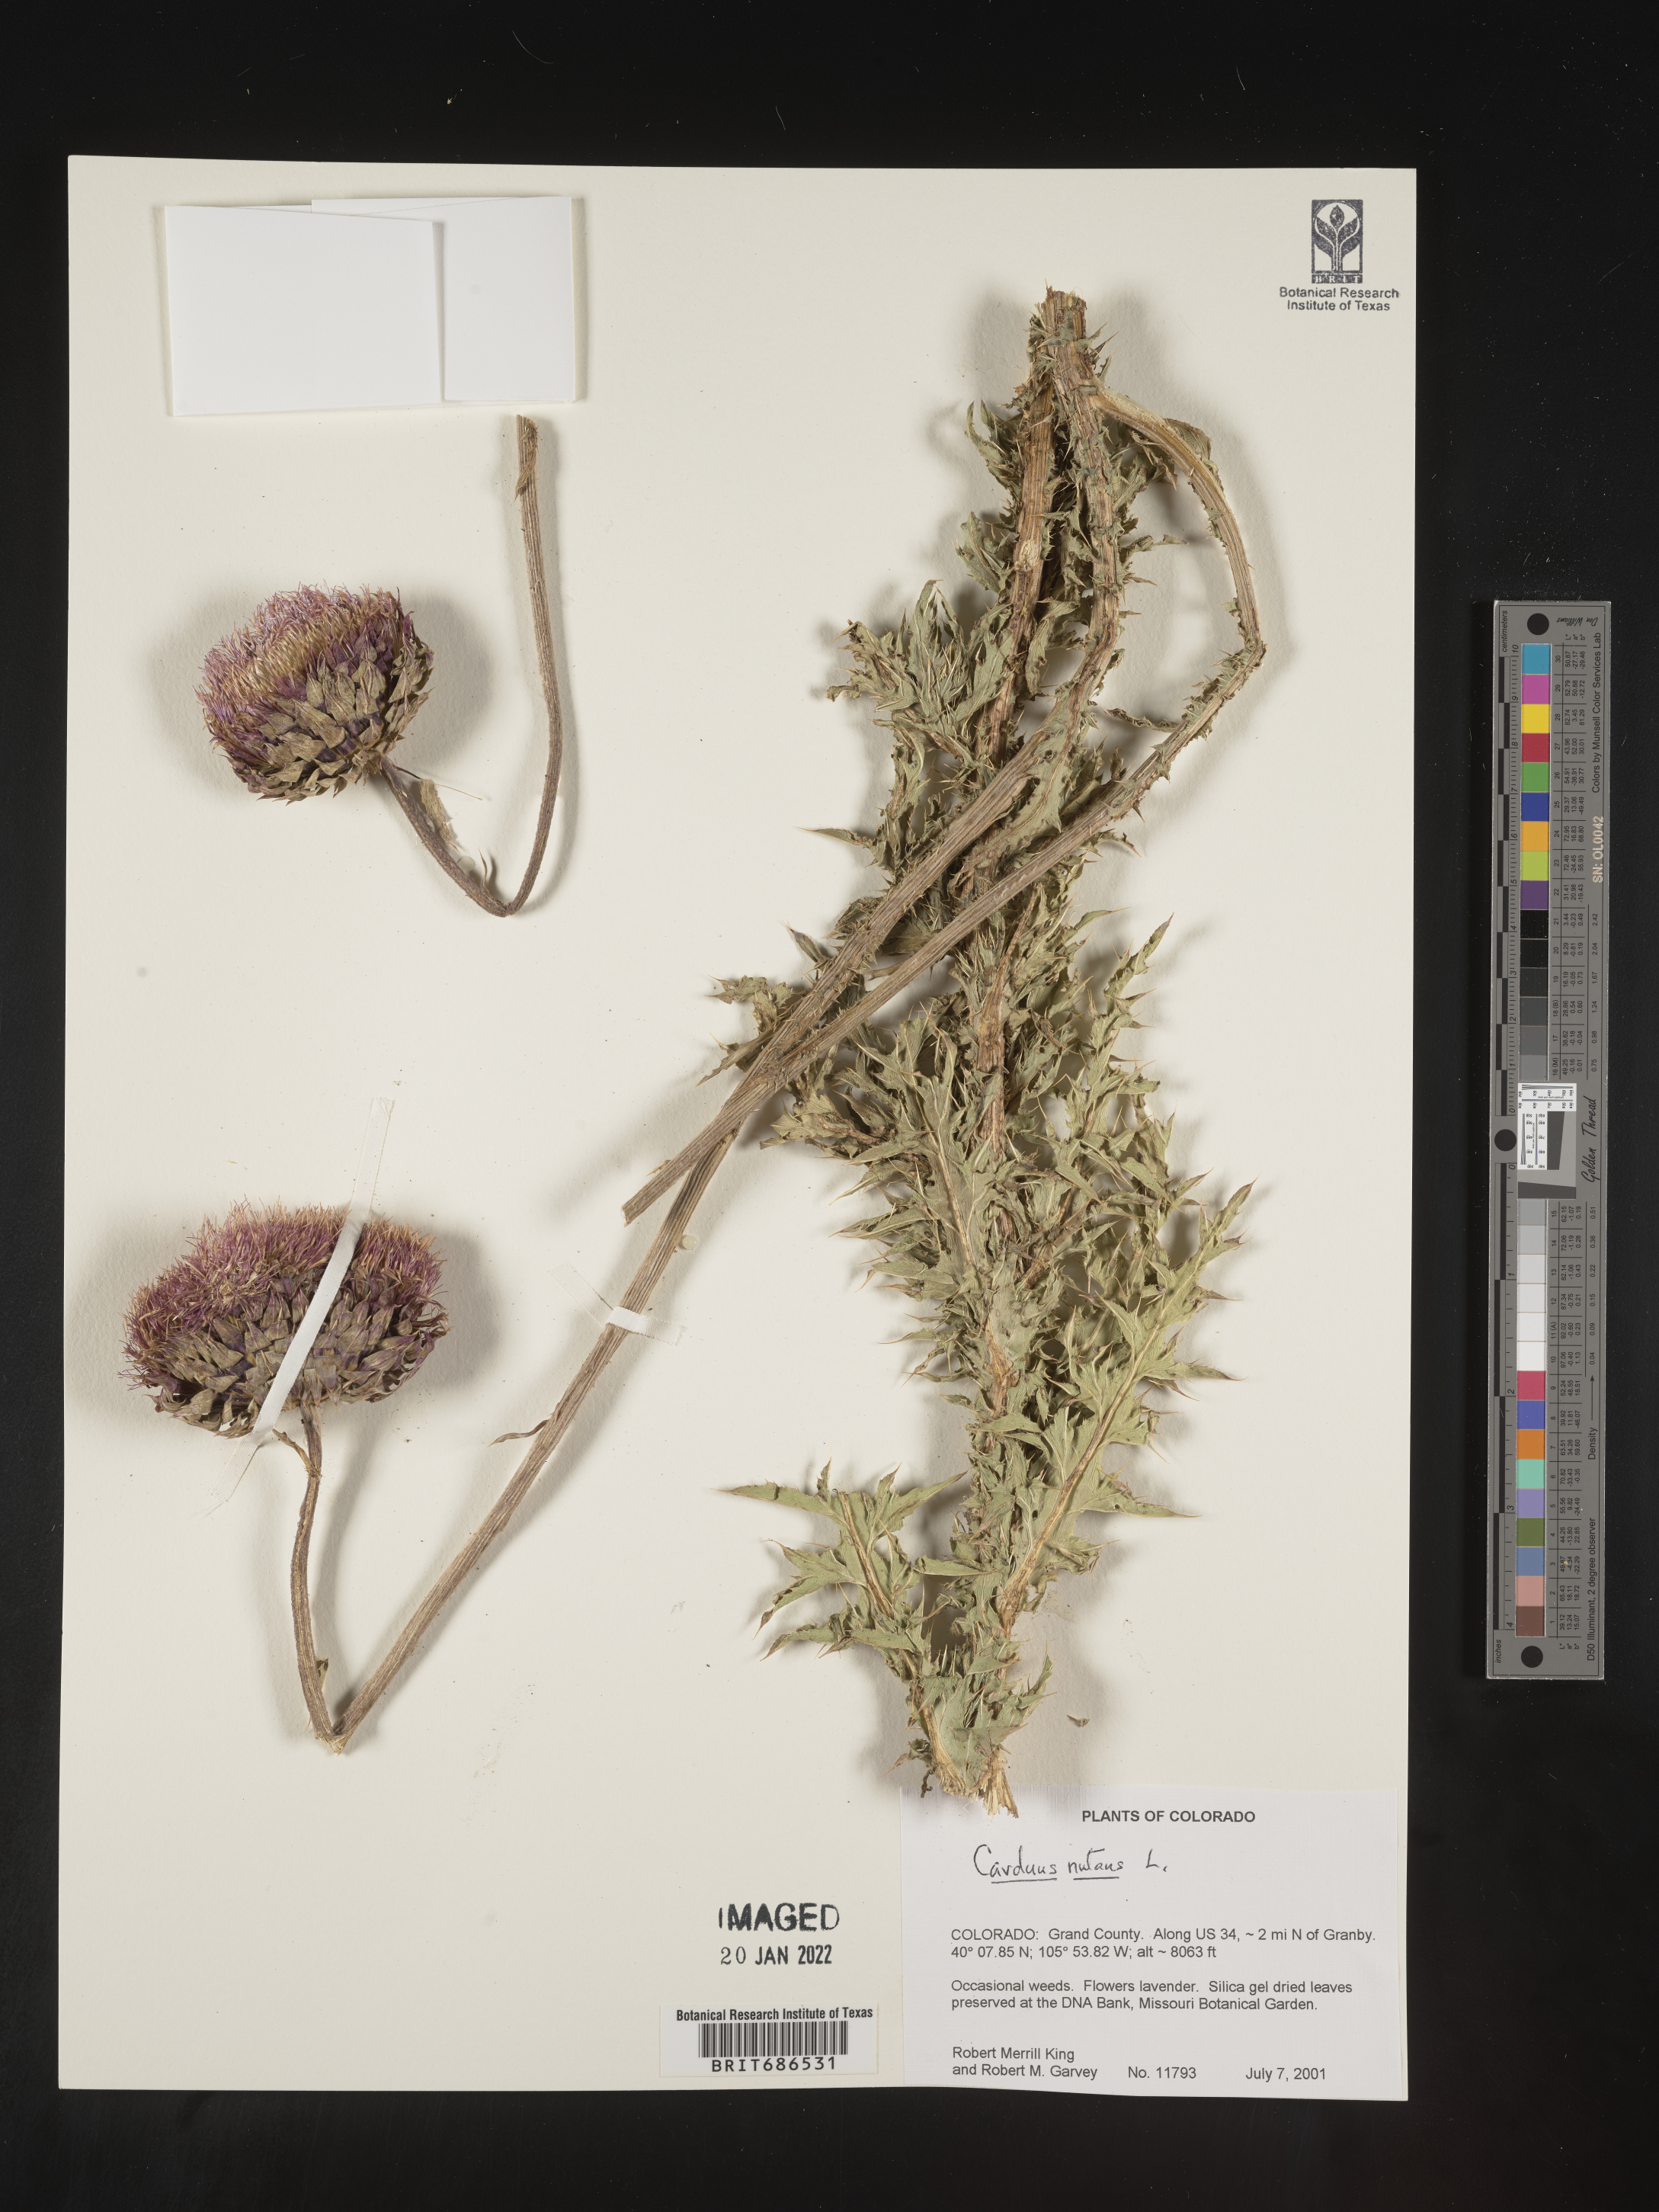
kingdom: Plantae
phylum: Tracheophyta
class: Magnoliopsida
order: Asterales
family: Asteraceae
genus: Carduus
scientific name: Carduus nutans
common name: Musk thistle
